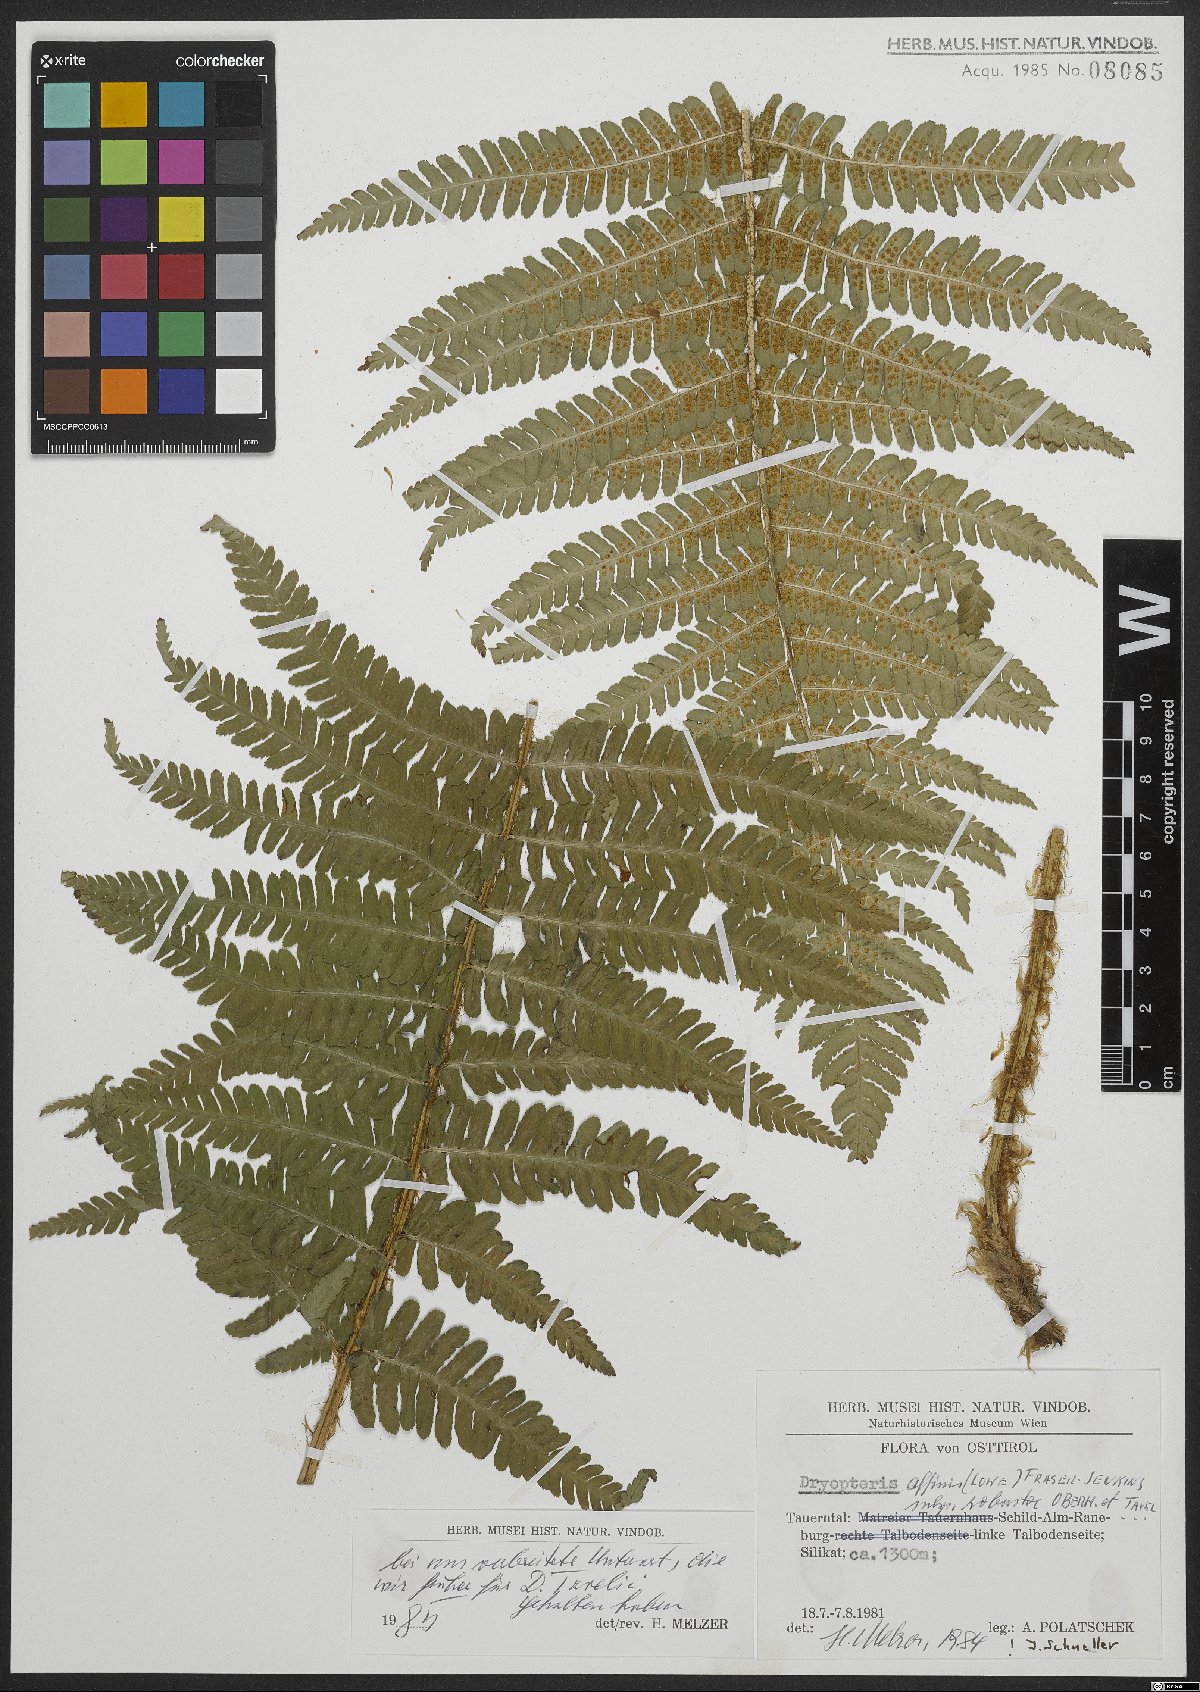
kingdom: Plantae
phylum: Tracheophyta
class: Polypodiopsida
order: Polypodiales
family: Dryopteridaceae
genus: Dryopteris
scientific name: Dryopteris borreri
